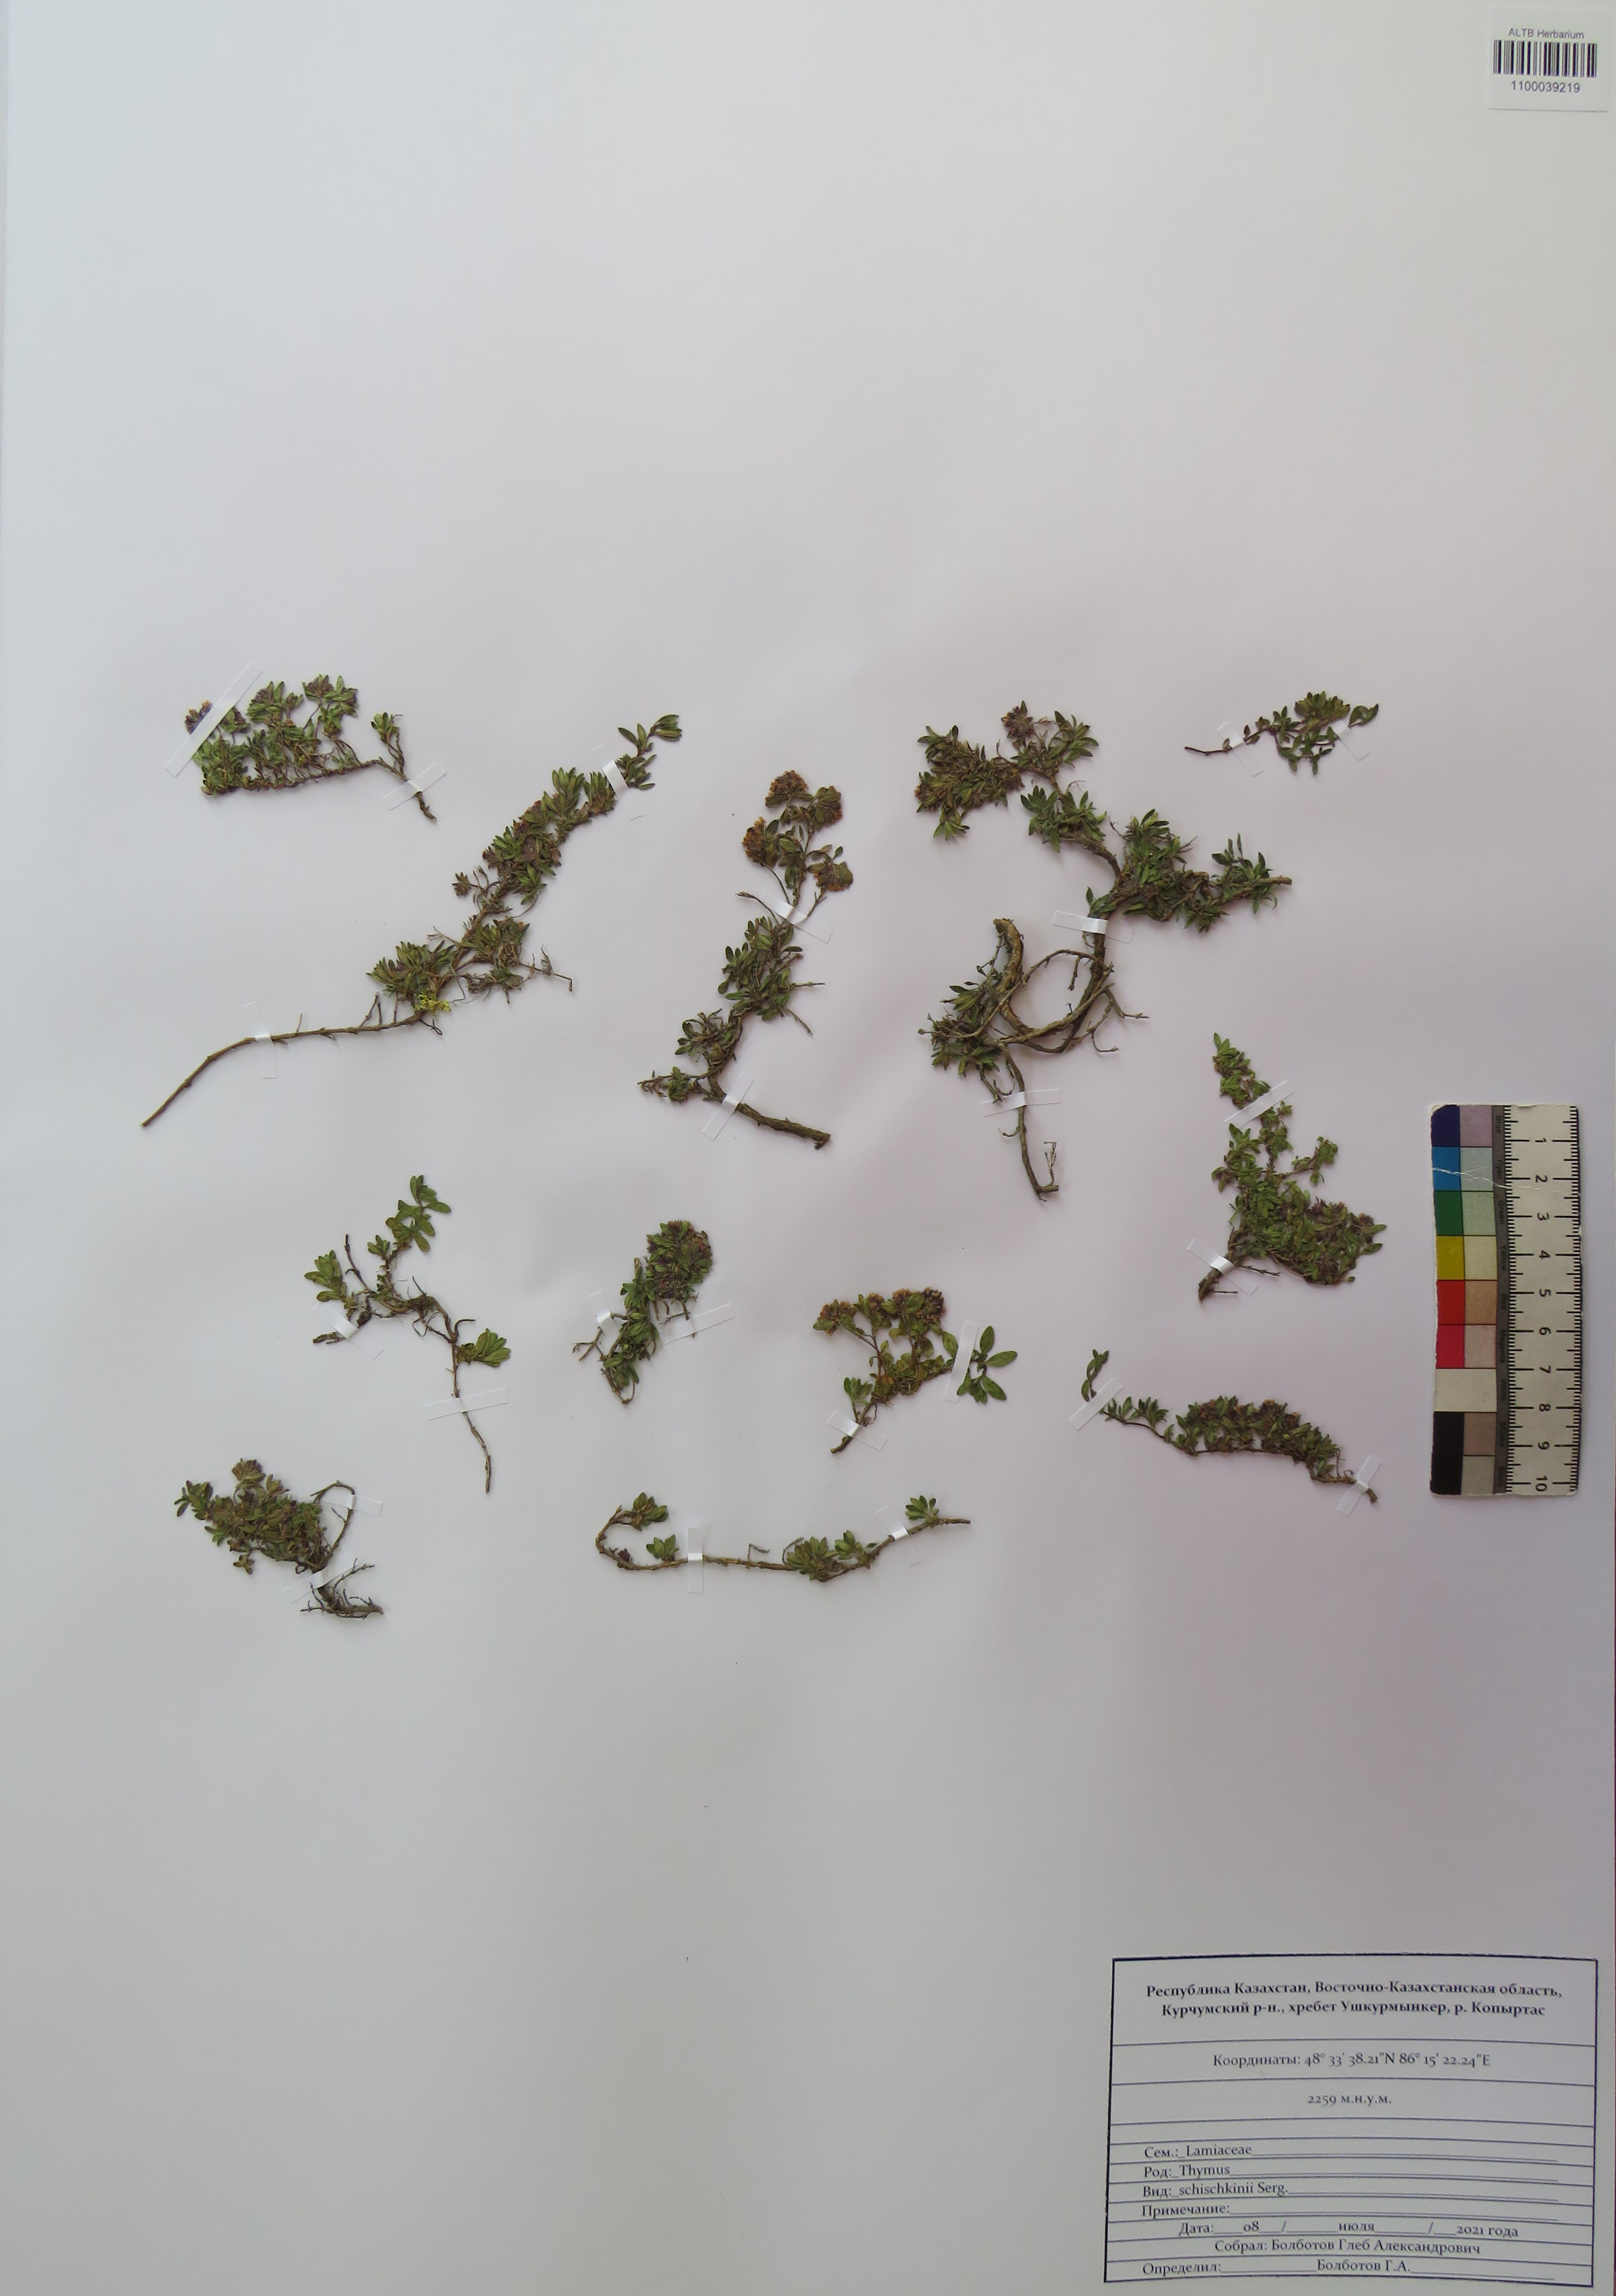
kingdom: Plantae
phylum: Tracheophyta
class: Magnoliopsida
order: Lamiales
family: Lamiaceae
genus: Thymus
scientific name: Thymus schischkinii
